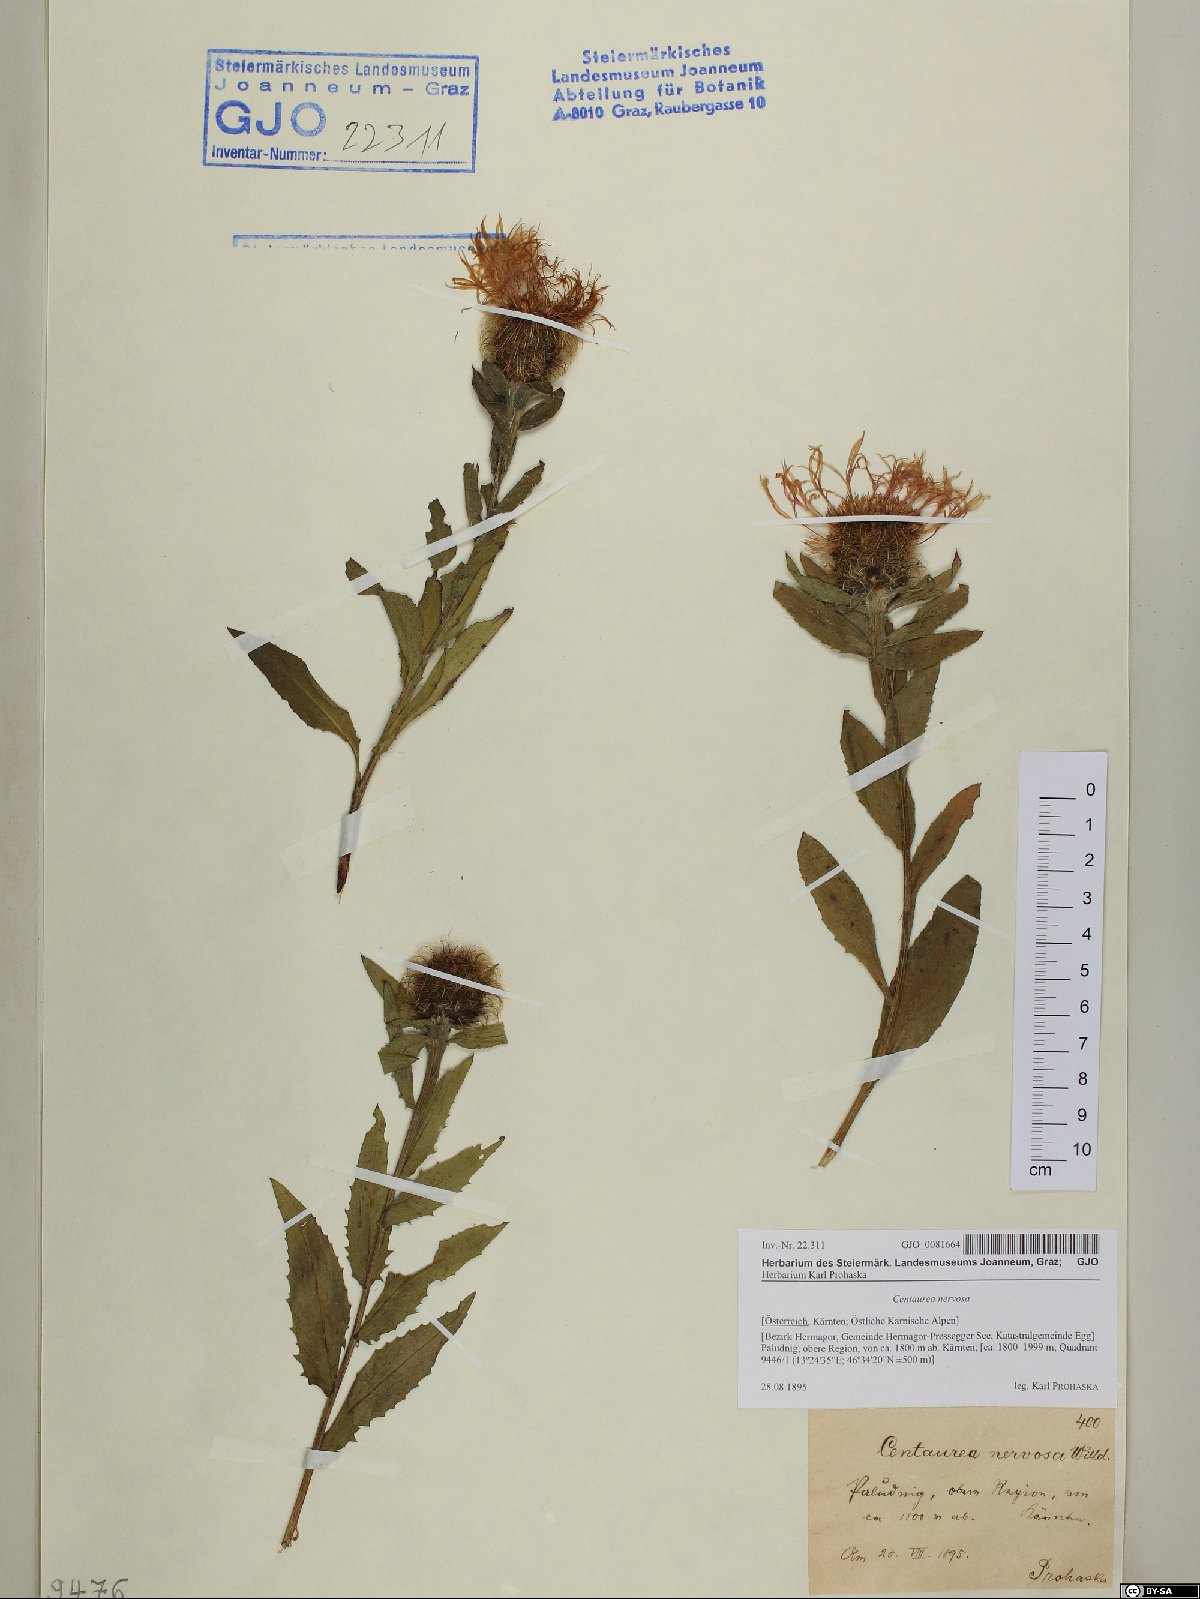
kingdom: Plantae
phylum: Tracheophyta
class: Magnoliopsida
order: Asterales
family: Asteraceae
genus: Centaurea
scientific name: Centaurea nervosa
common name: Singleflower knapweed
